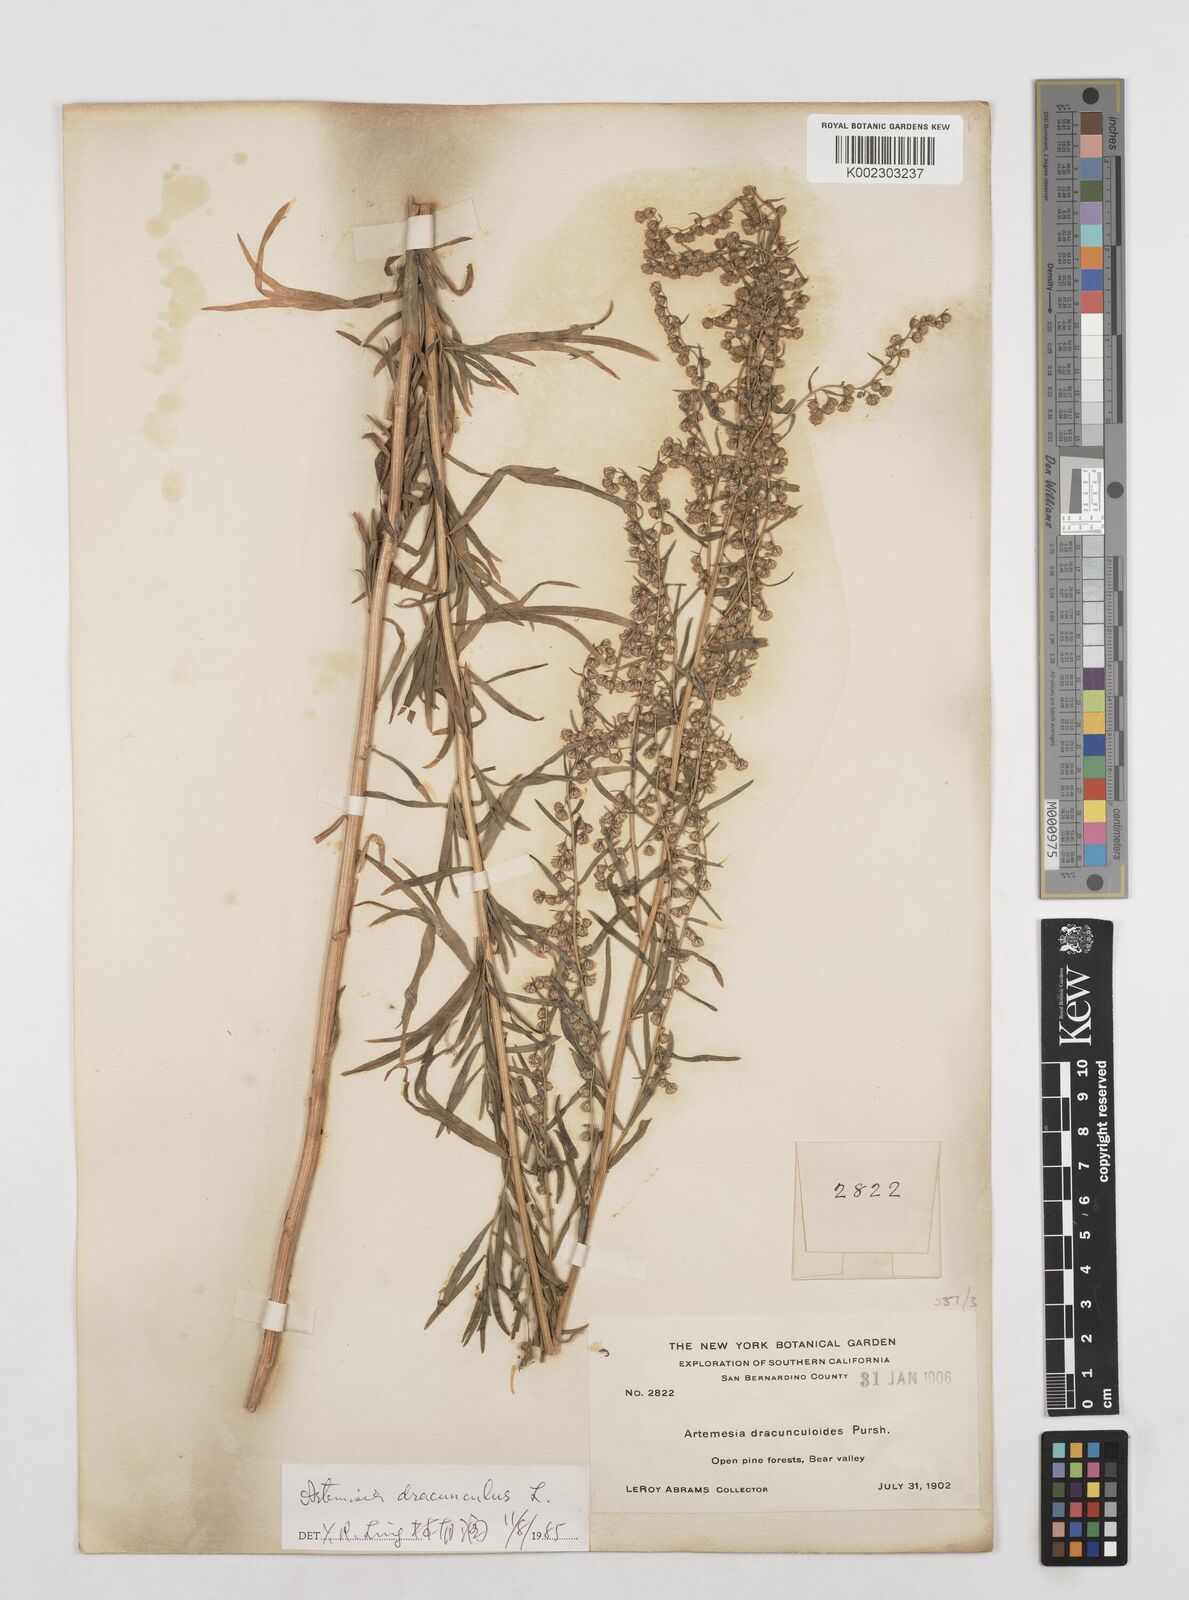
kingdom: Plantae
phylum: Tracheophyta
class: Magnoliopsida
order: Asterales
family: Asteraceae
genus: Artemisia
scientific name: Artemisia dracunculus
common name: Tarragon
